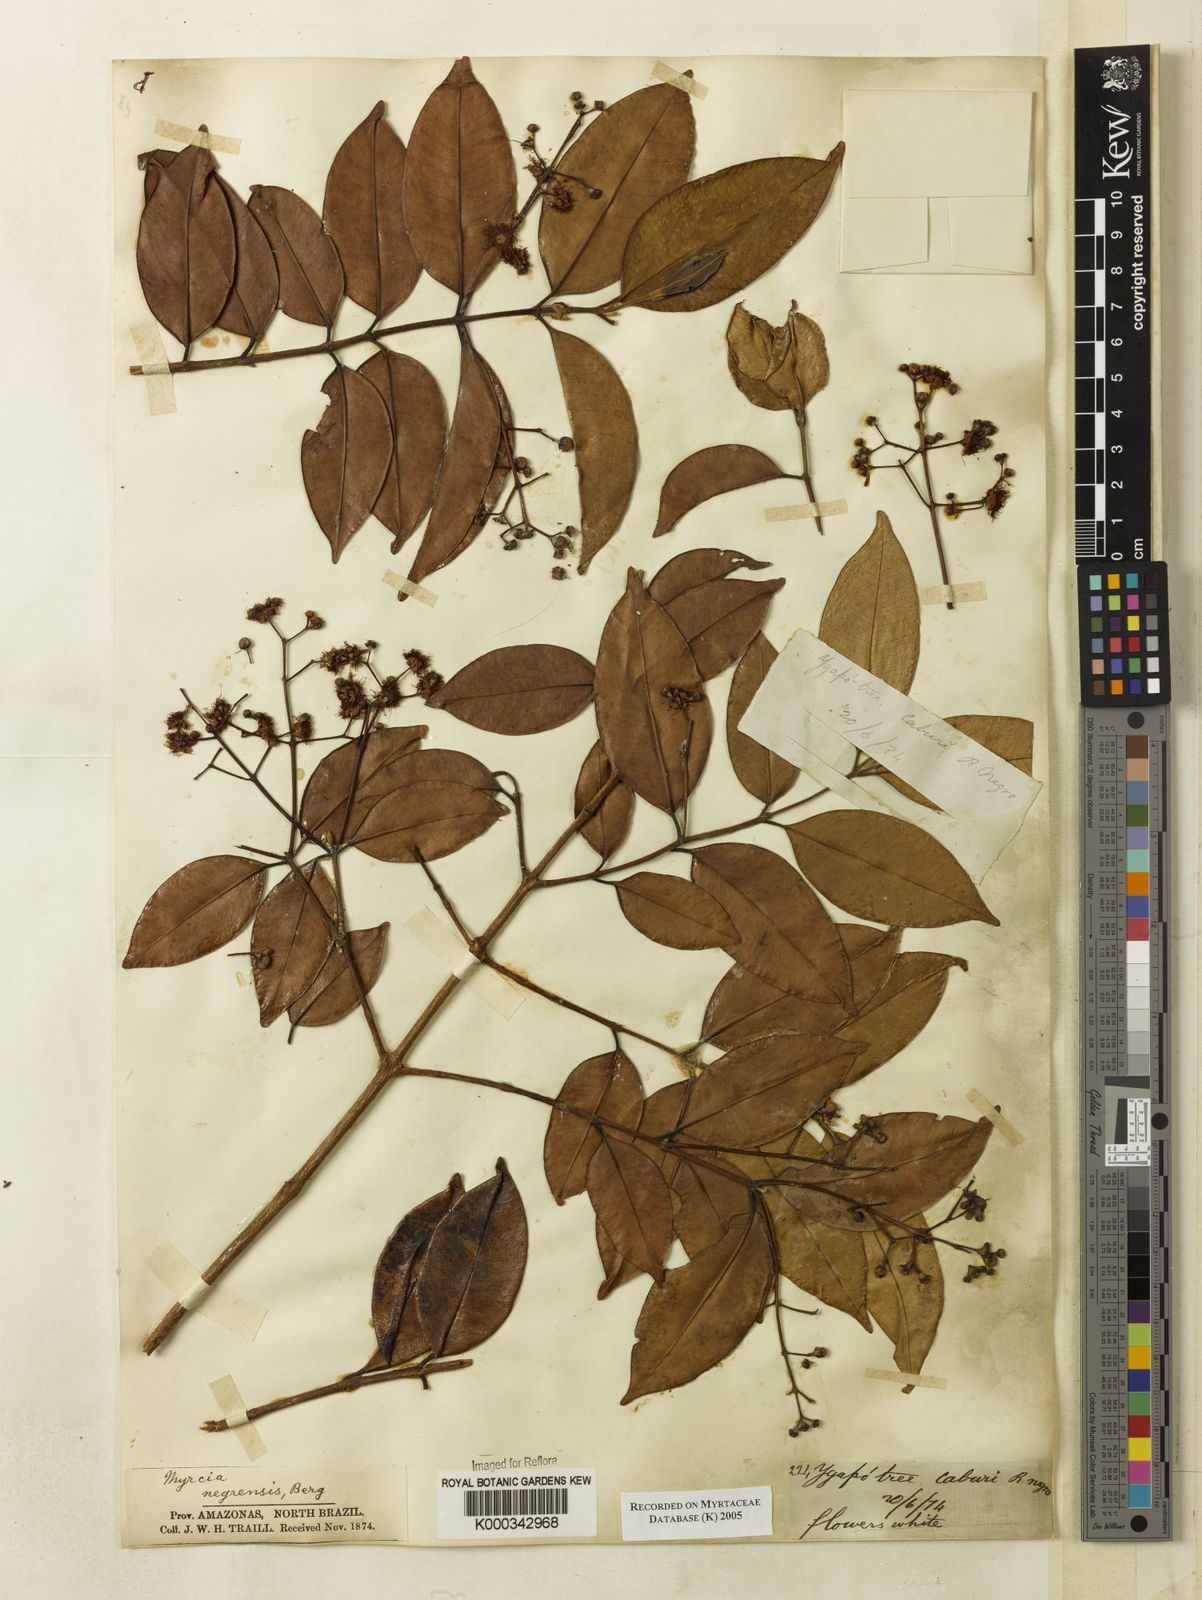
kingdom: Plantae
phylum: Tracheophyta
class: Magnoliopsida
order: Myrtales
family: Myrtaceae
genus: Myrcia
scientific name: Myrcia splendens
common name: Surinam cherry
